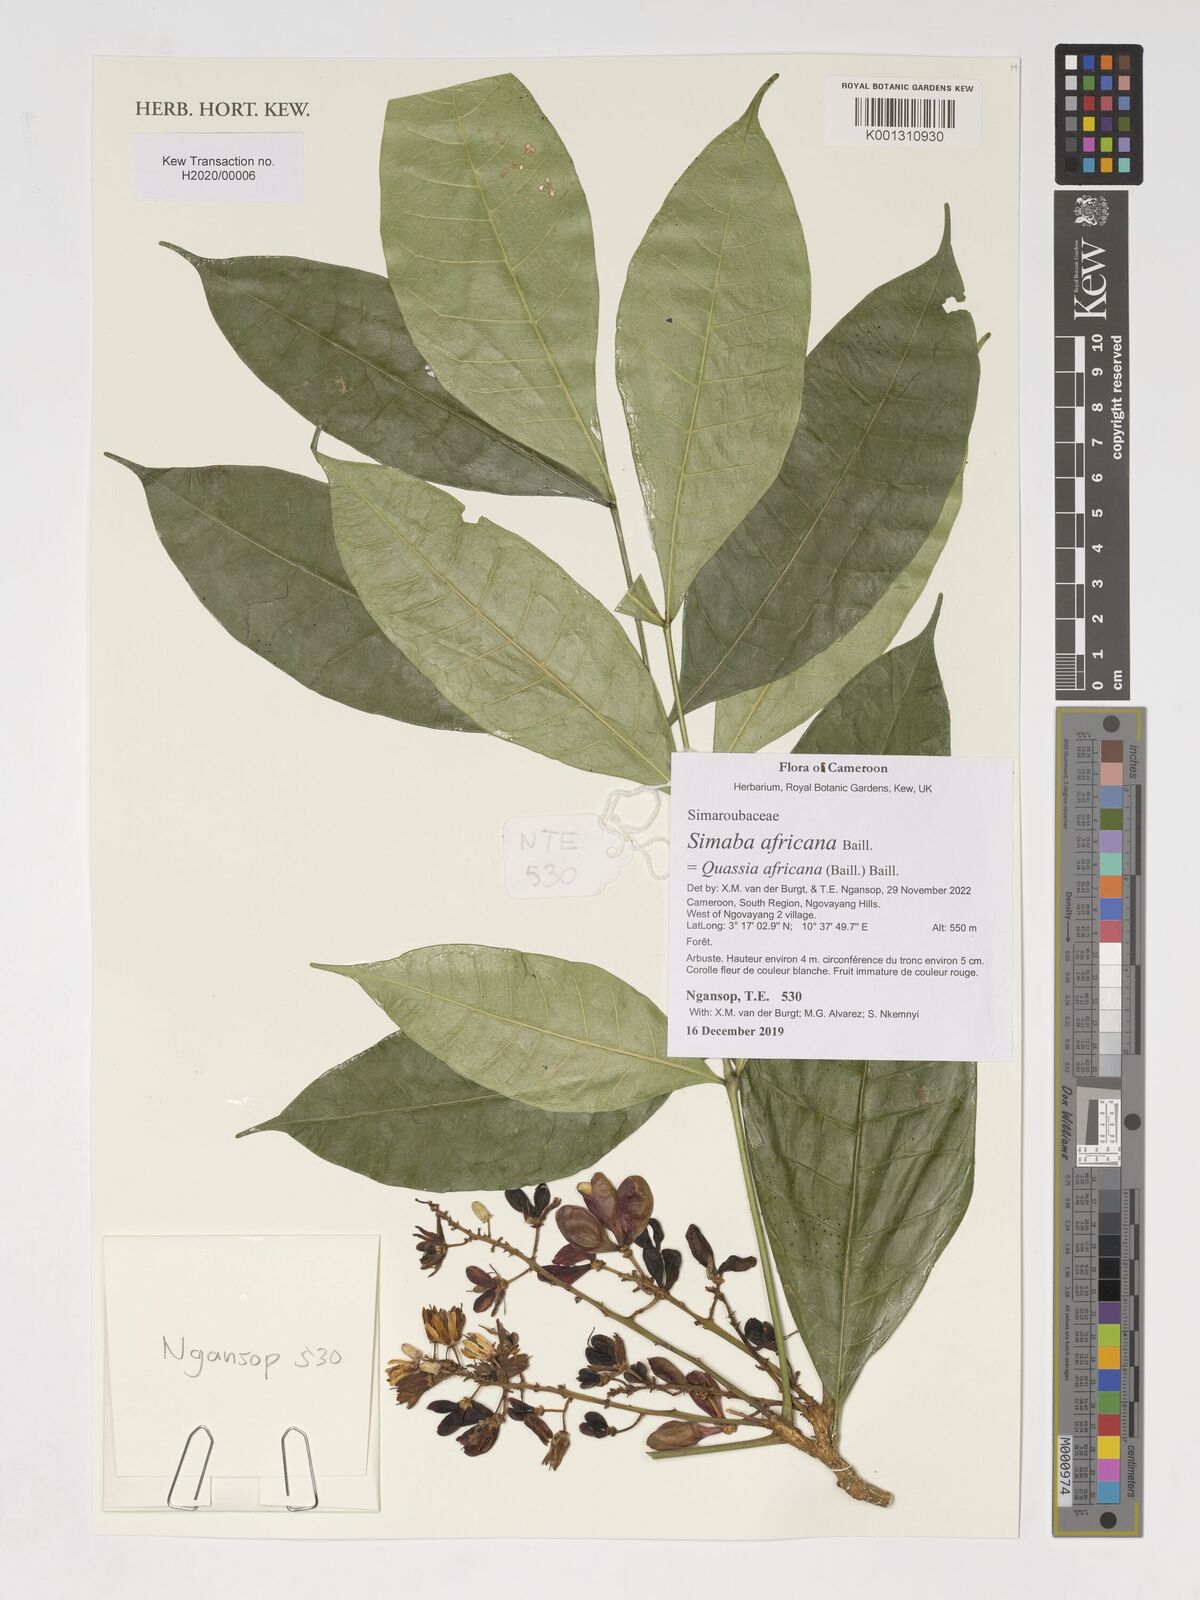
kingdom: Plantae
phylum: Tracheophyta
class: Magnoliopsida
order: Sapindales
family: Simaroubaceae
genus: Simaba
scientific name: Simaba africana
